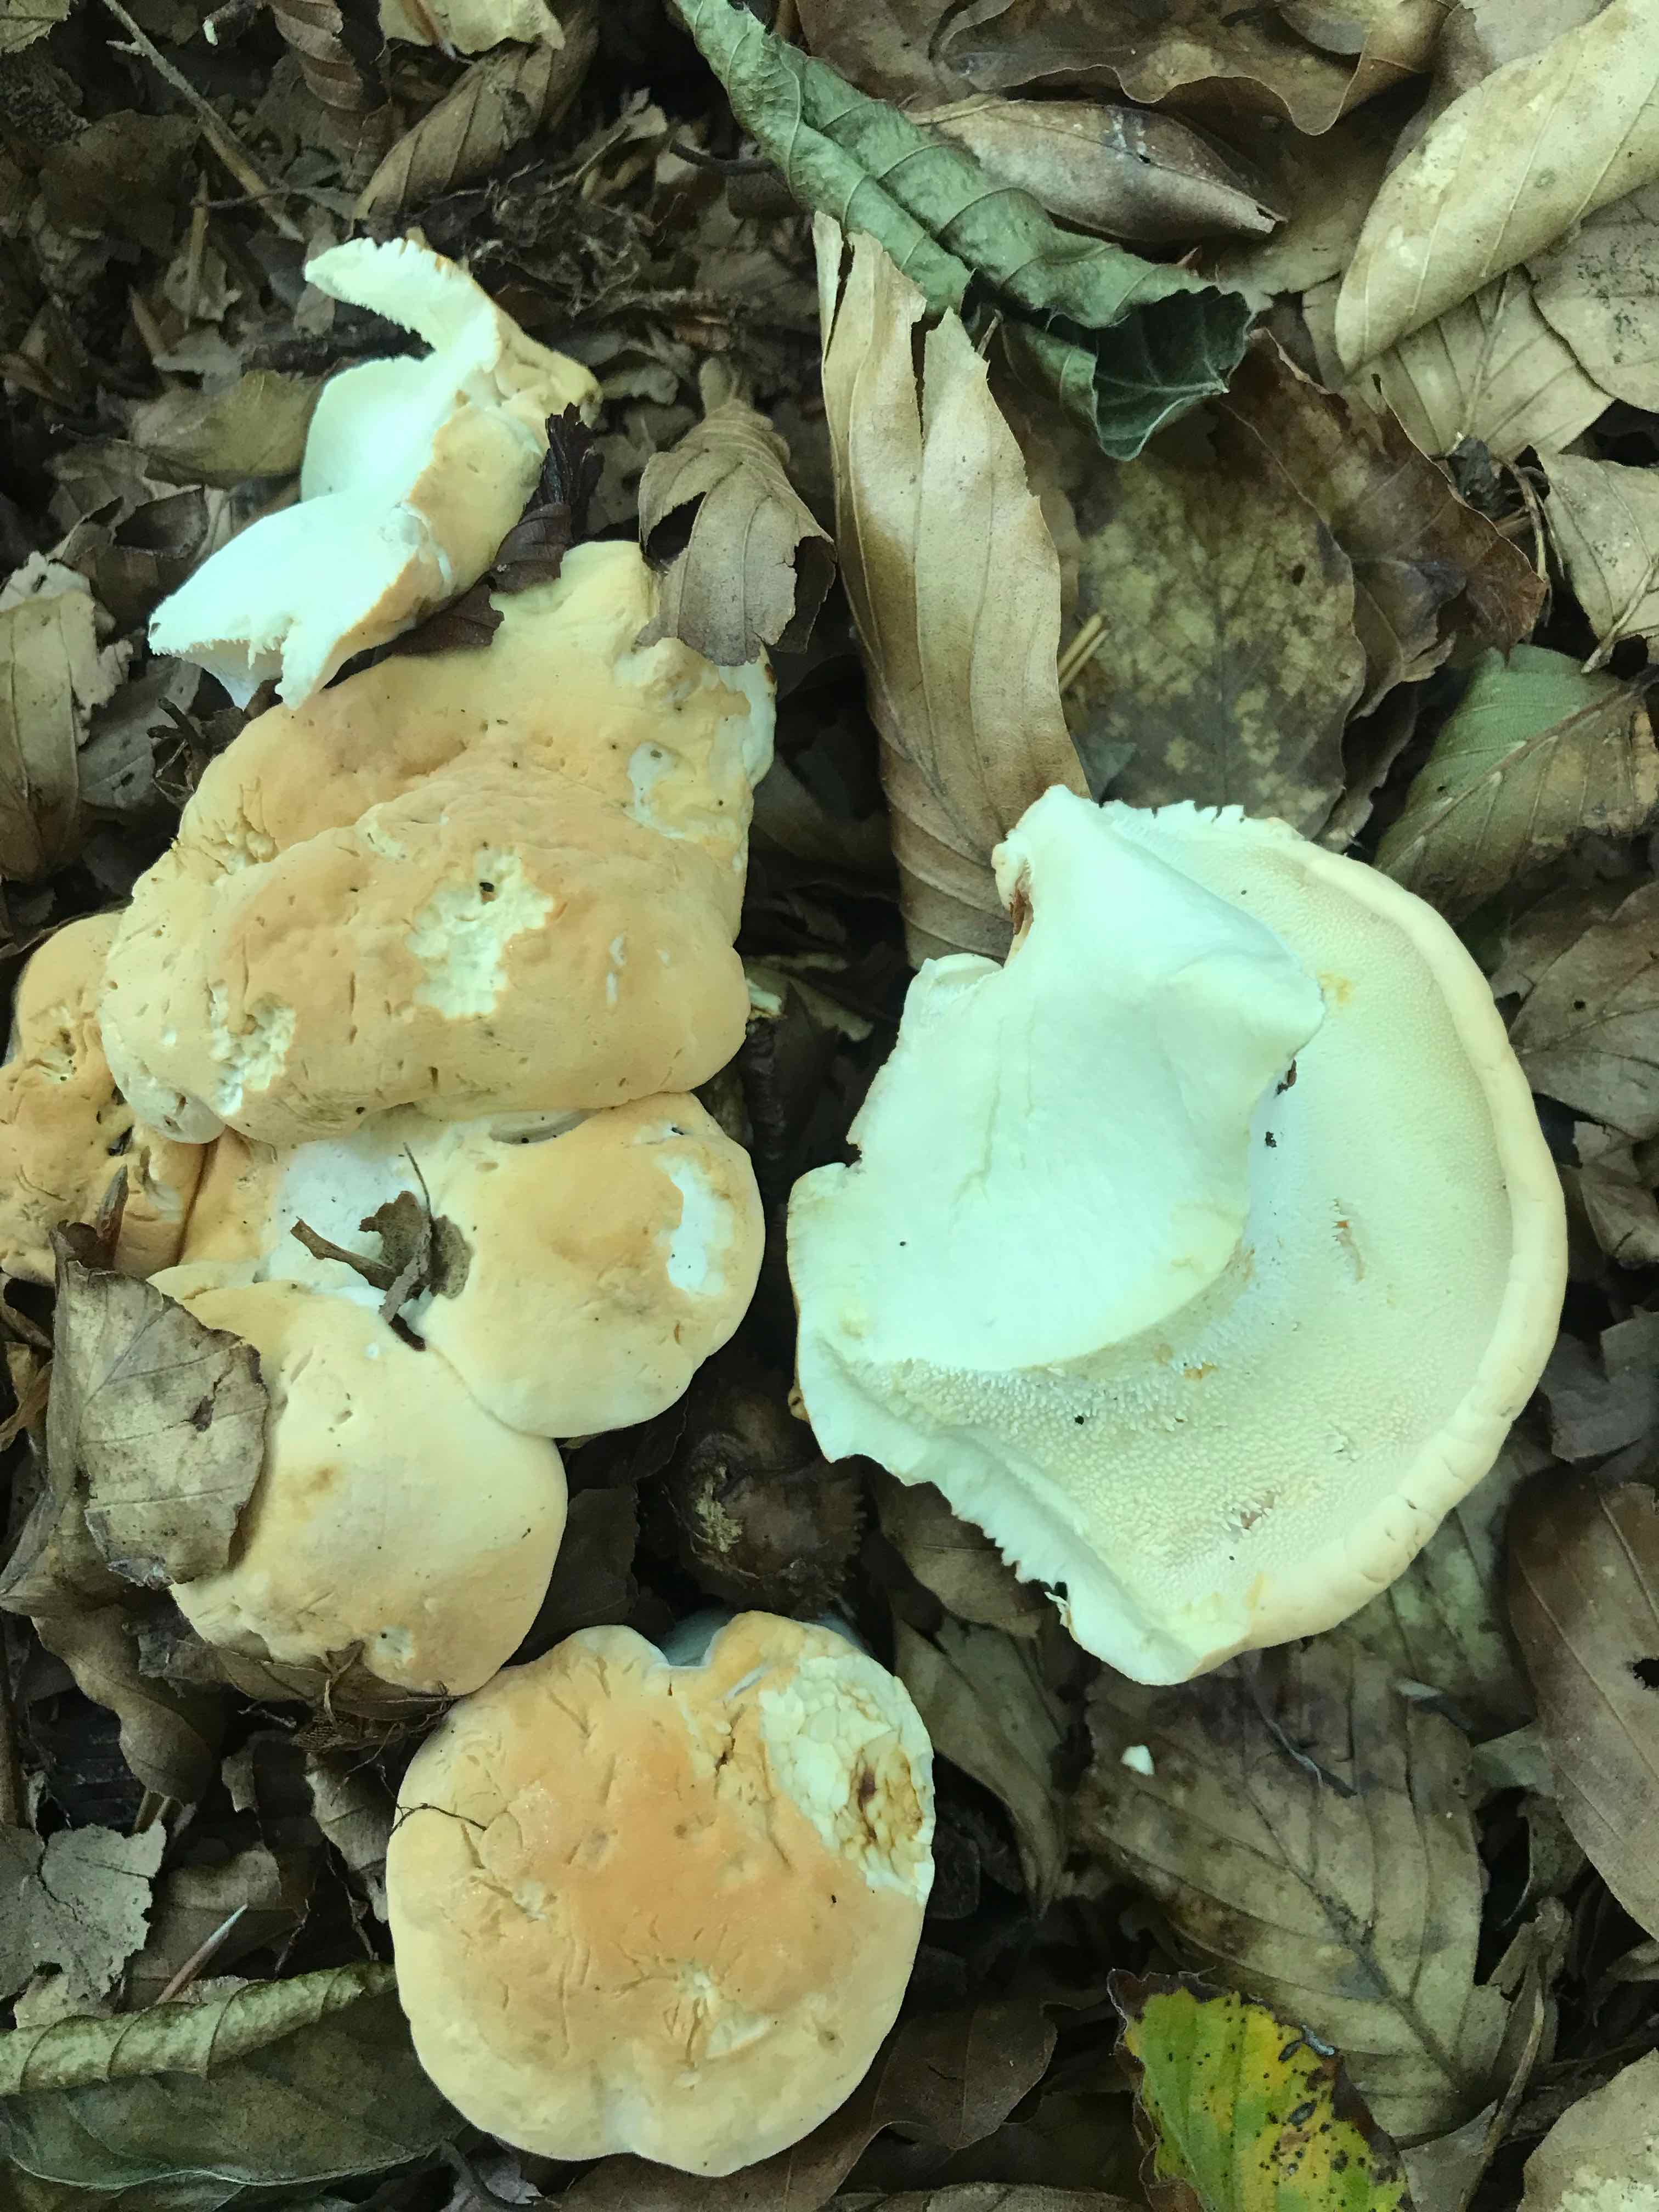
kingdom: Fungi
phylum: Basidiomycota
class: Agaricomycetes
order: Cantharellales
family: Hydnaceae
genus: Hydnum
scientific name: Hydnum repandum
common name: almindelig pigsvamp
